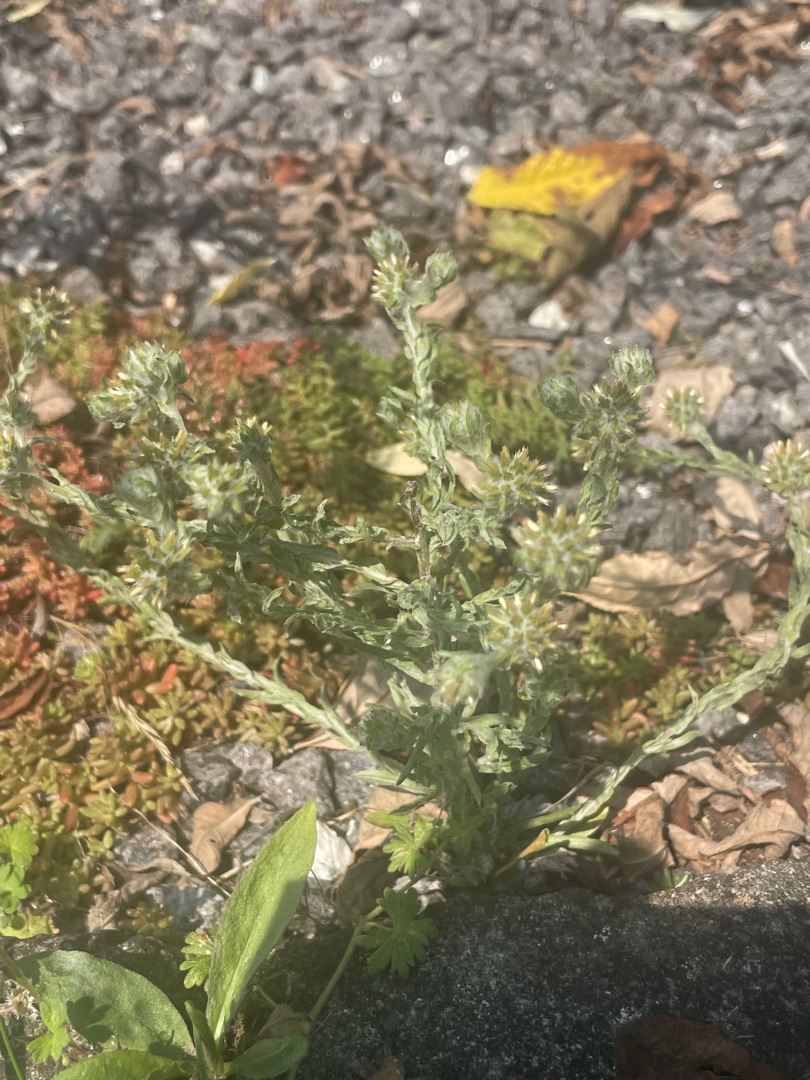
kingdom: Plantae
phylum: Tracheophyta
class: Magnoliopsida
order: Asterales
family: Asteraceae
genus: Filago
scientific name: Filago germanica
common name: Kugle-museurt
